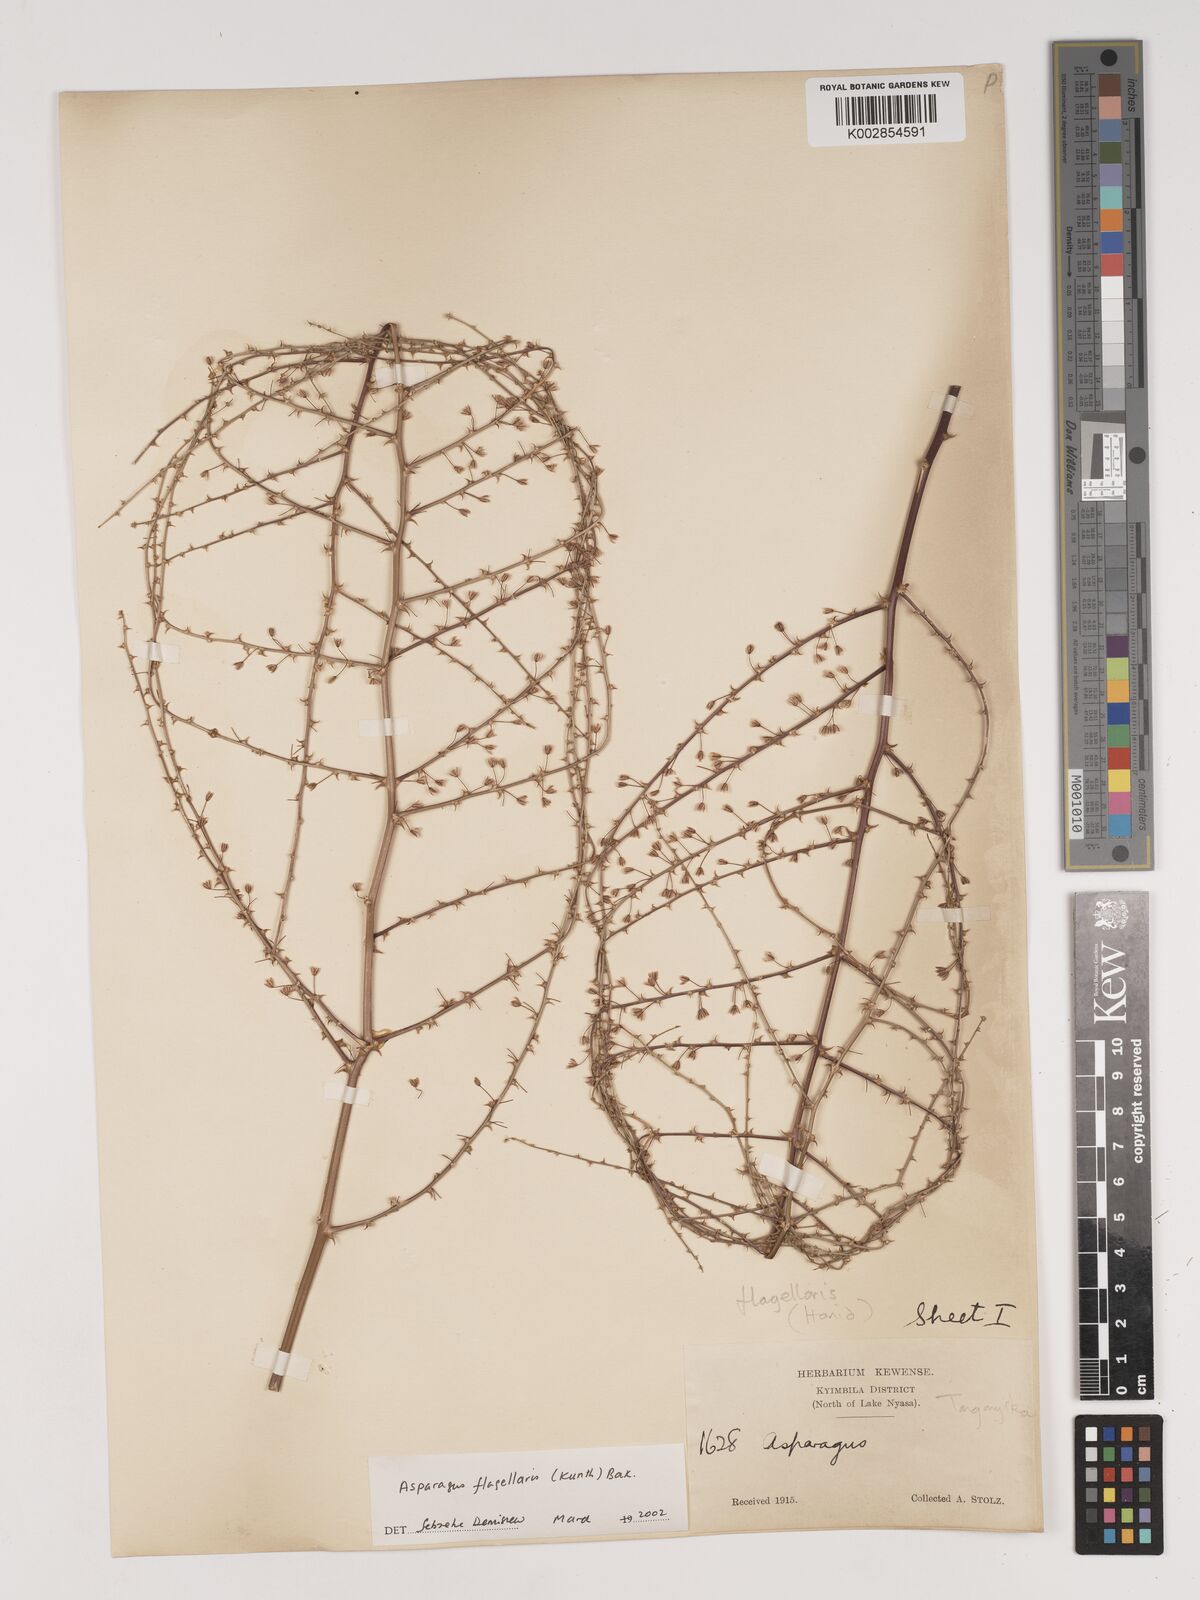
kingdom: Plantae
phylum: Tracheophyta
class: Liliopsida
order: Asparagales
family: Asparagaceae
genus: Asparagus
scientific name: Asparagus flagellaris
